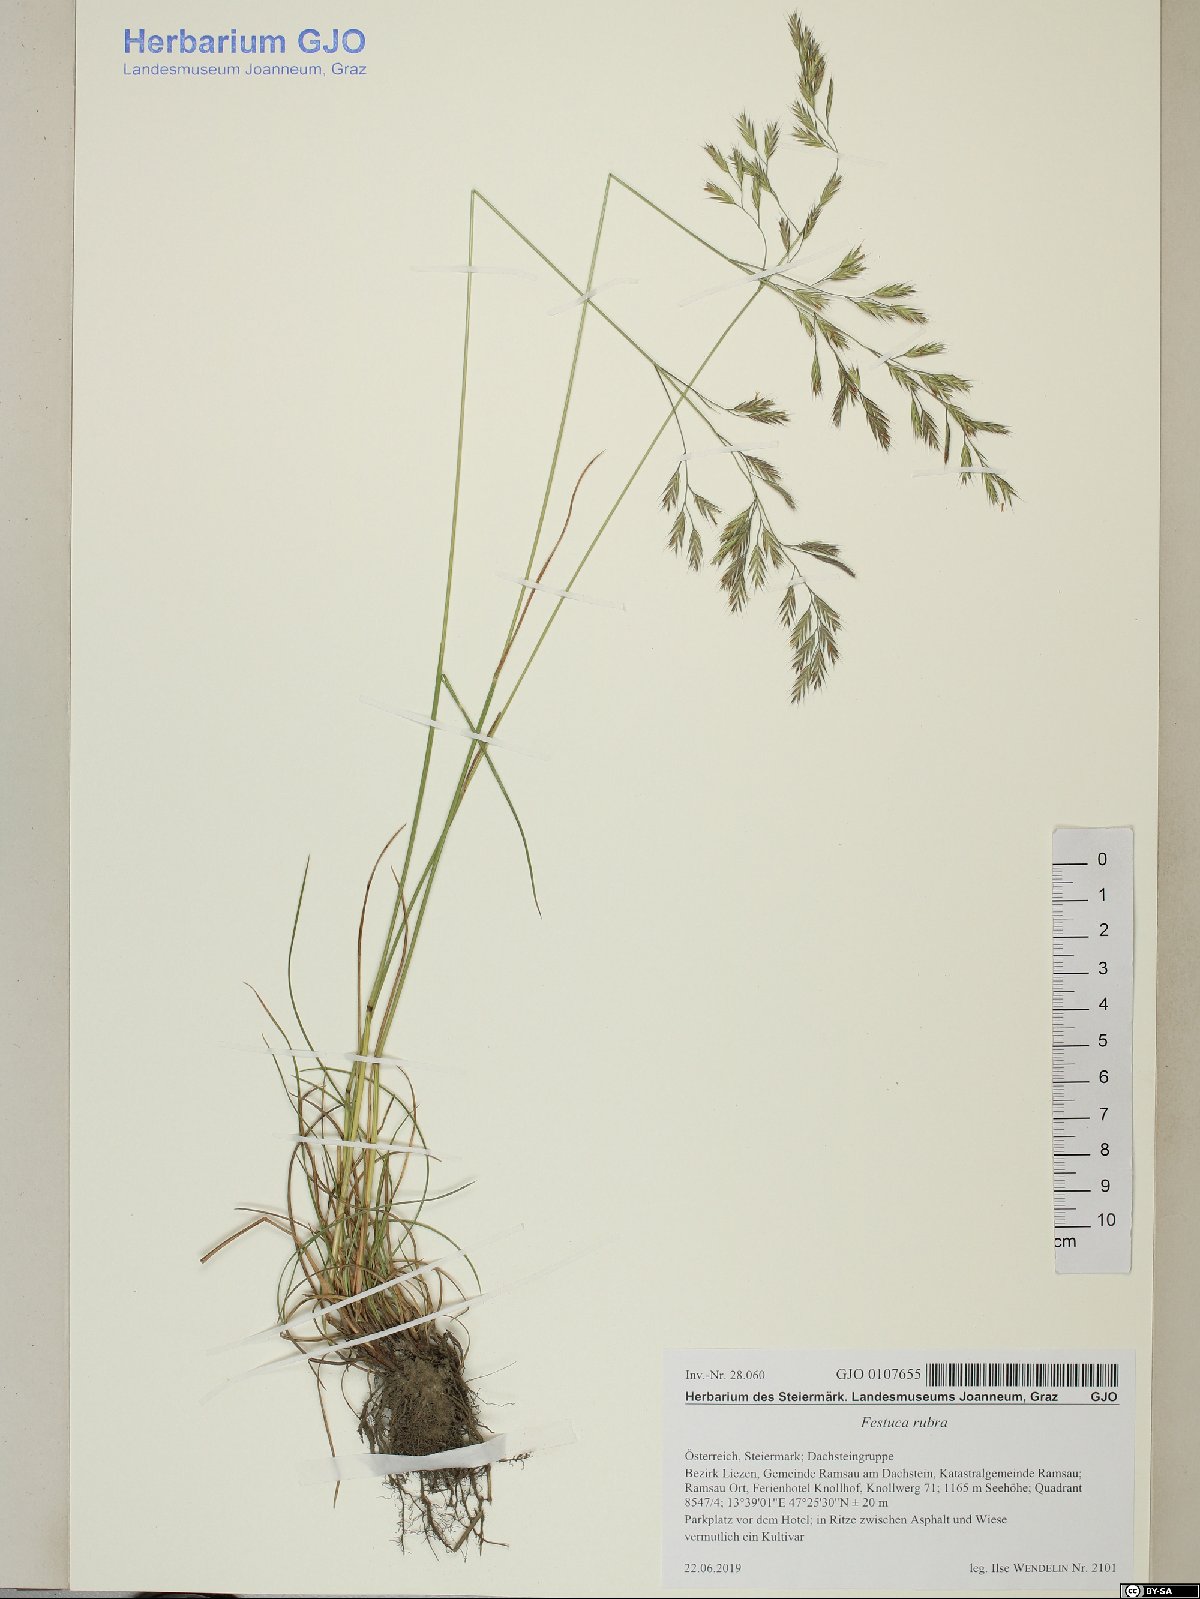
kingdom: Plantae
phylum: Tracheophyta
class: Liliopsida
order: Poales
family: Poaceae
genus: Festuca
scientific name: Festuca rubra
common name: Red fescue
